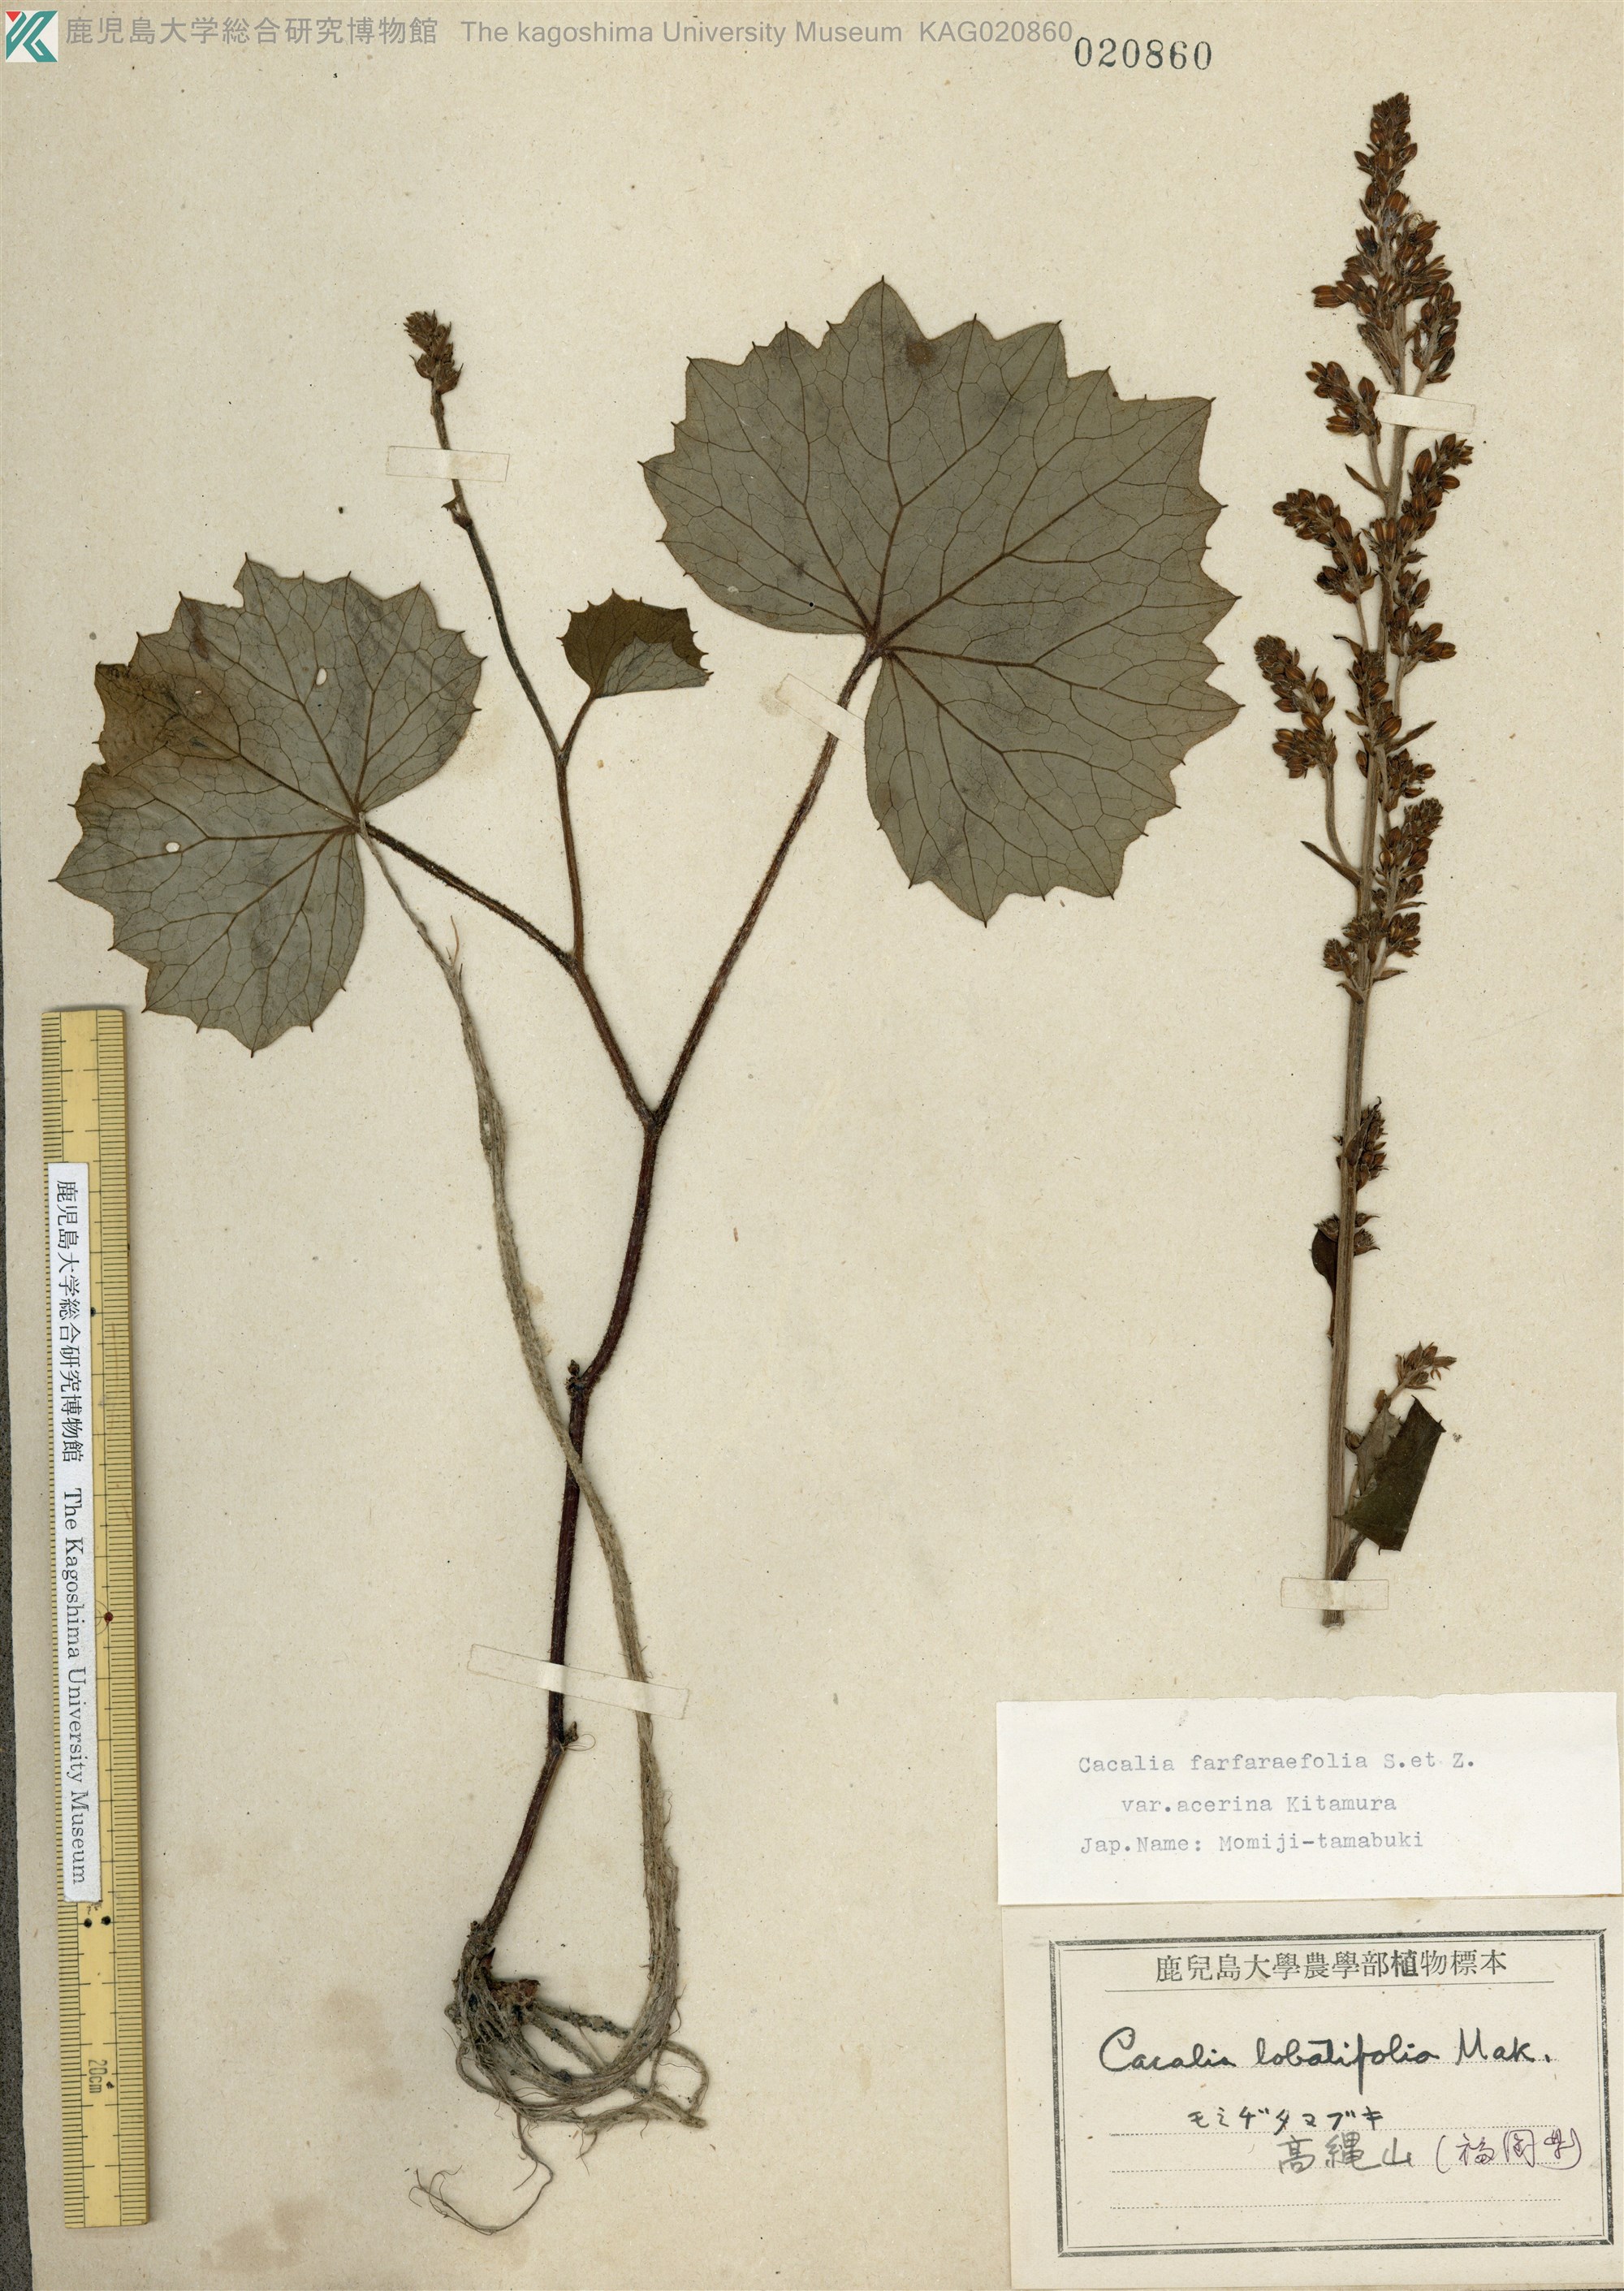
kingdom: Plantae
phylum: Tracheophyta
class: Magnoliopsida
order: Asterales
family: Asteraceae
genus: Parasenecio
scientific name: Parasenecio farfarifolius
